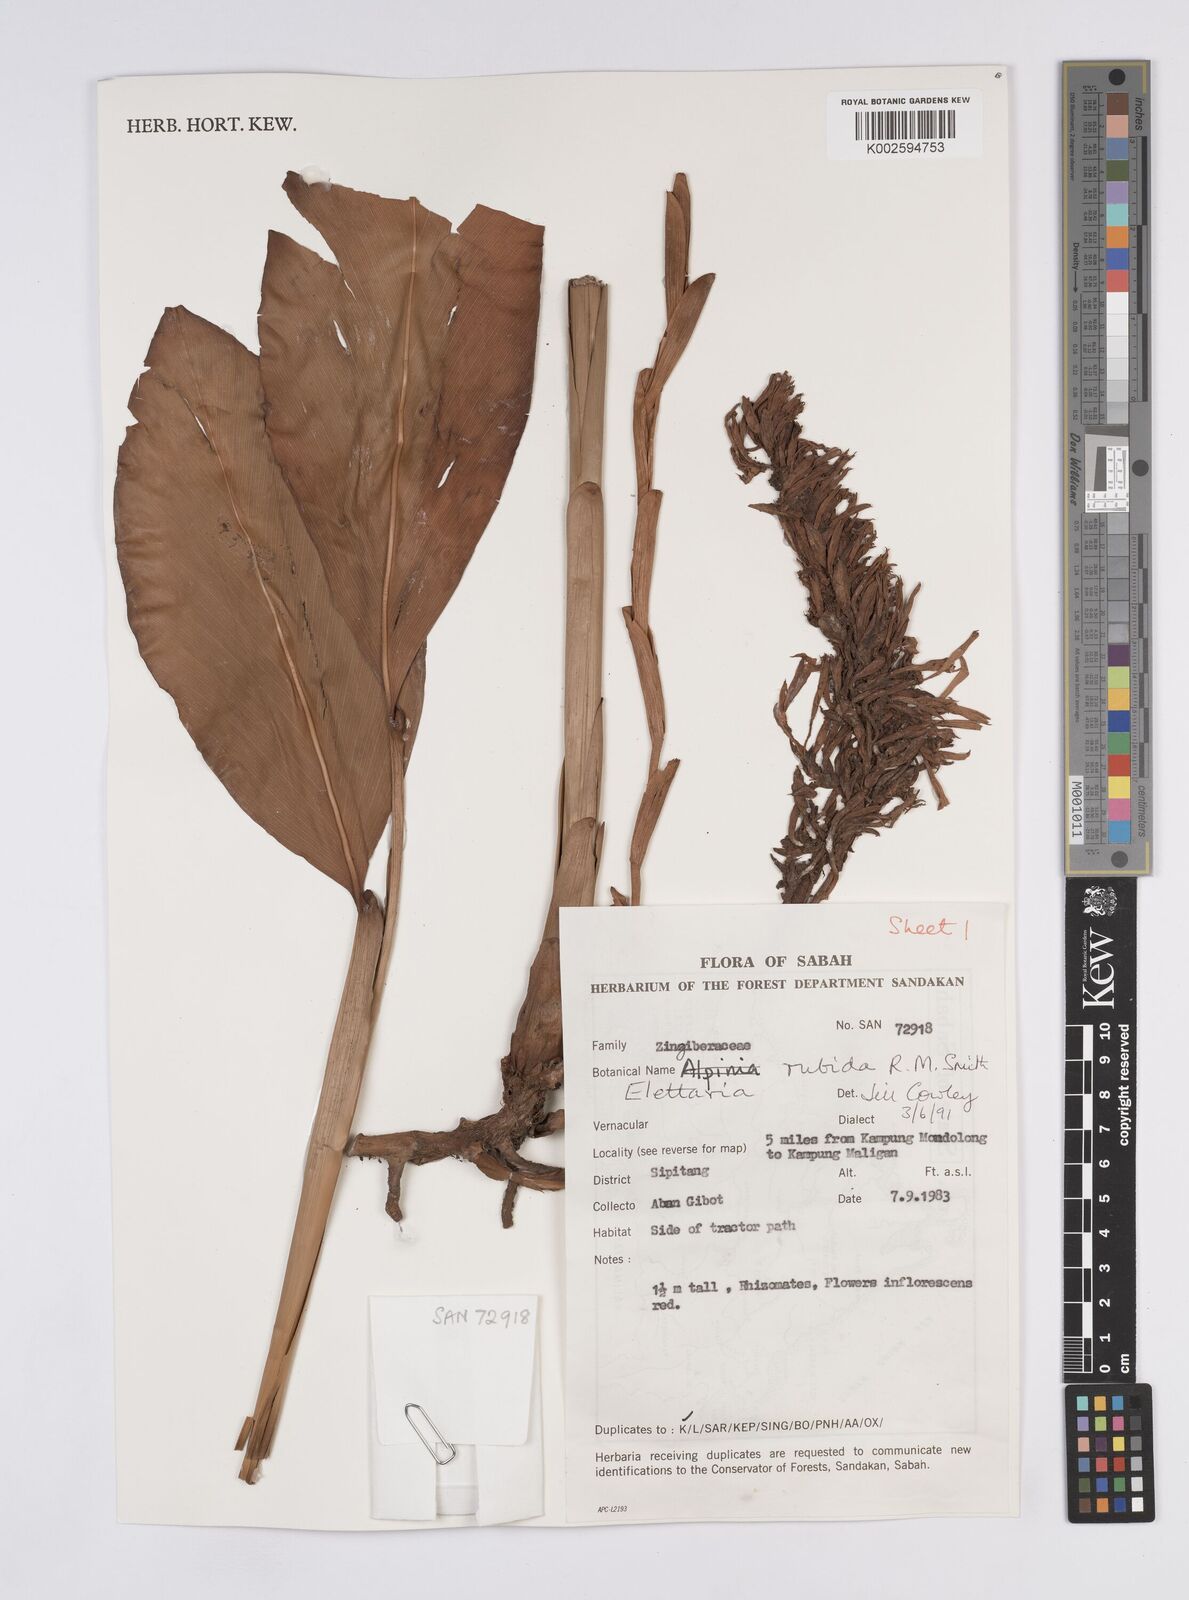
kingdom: Plantae
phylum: Tracheophyta
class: Liliopsida
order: Zingiberales
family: Zingiberaceae
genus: Sulettaria
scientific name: Sulettaria rubida
